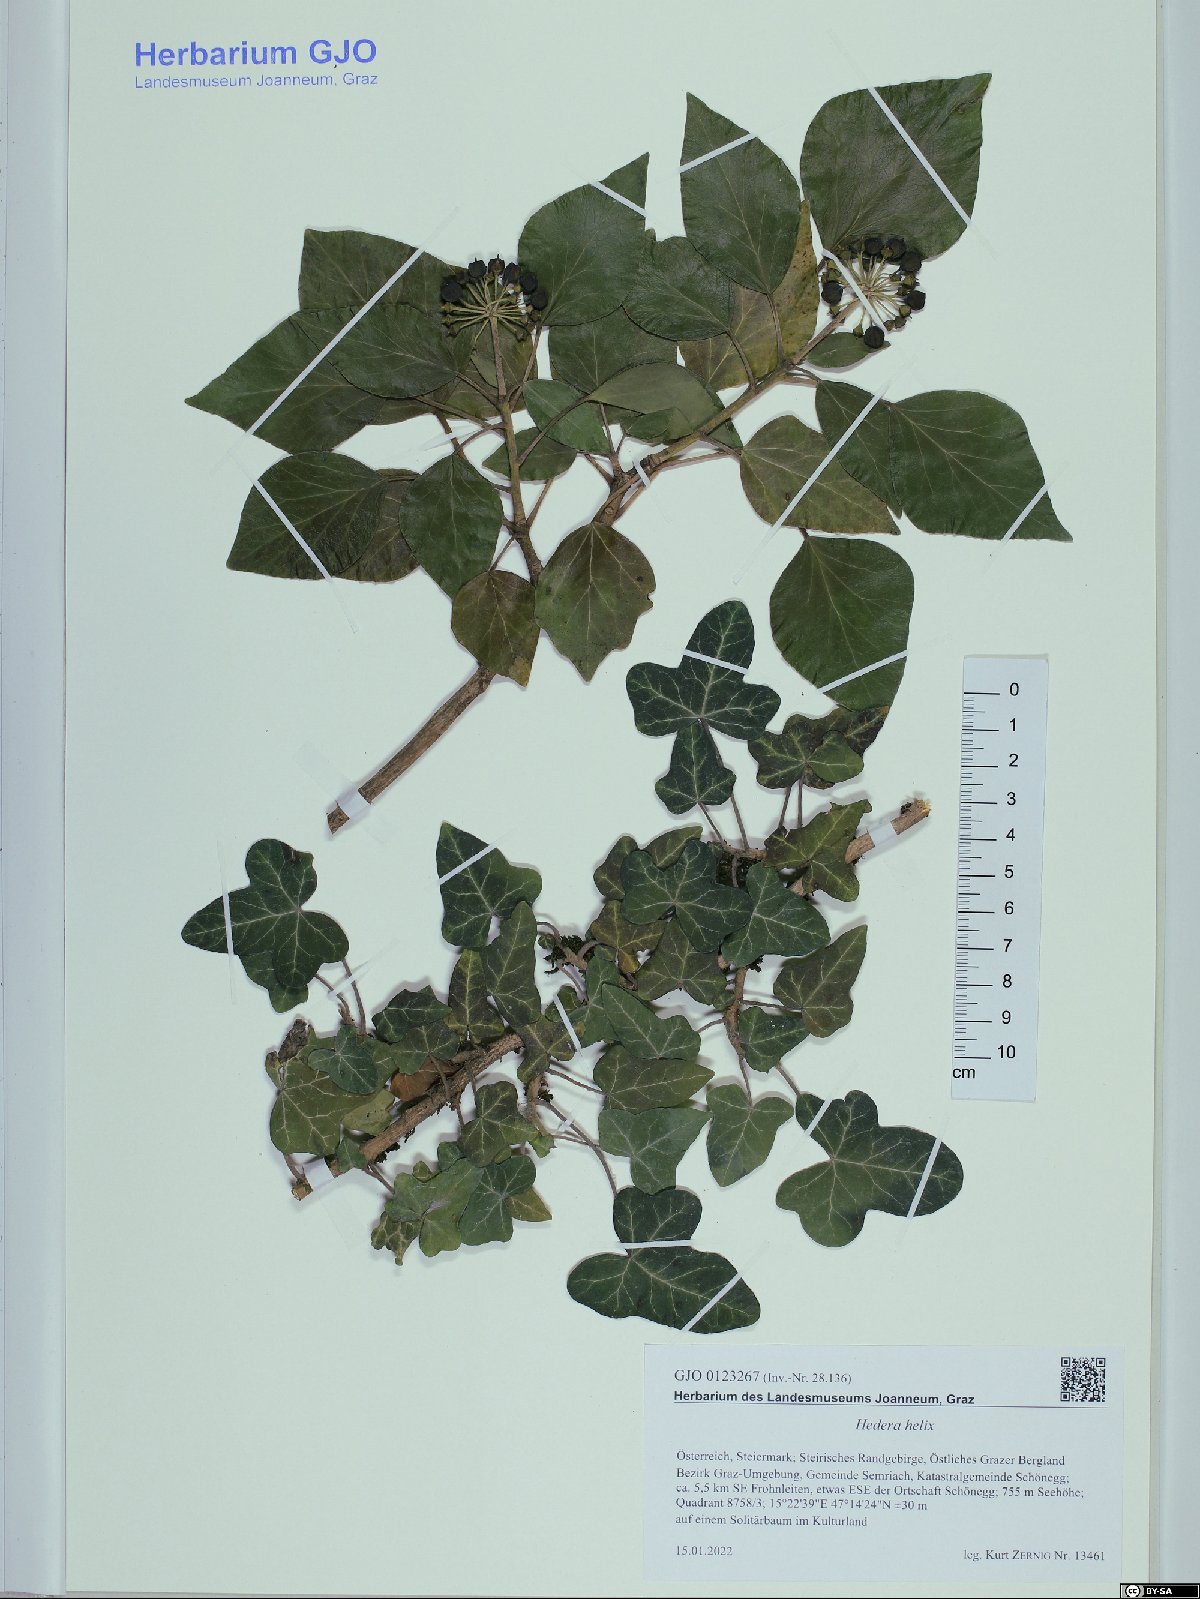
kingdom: Plantae
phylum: Tracheophyta
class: Magnoliopsida
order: Apiales
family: Araliaceae
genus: Hedera
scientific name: Hedera helix
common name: Ivy
